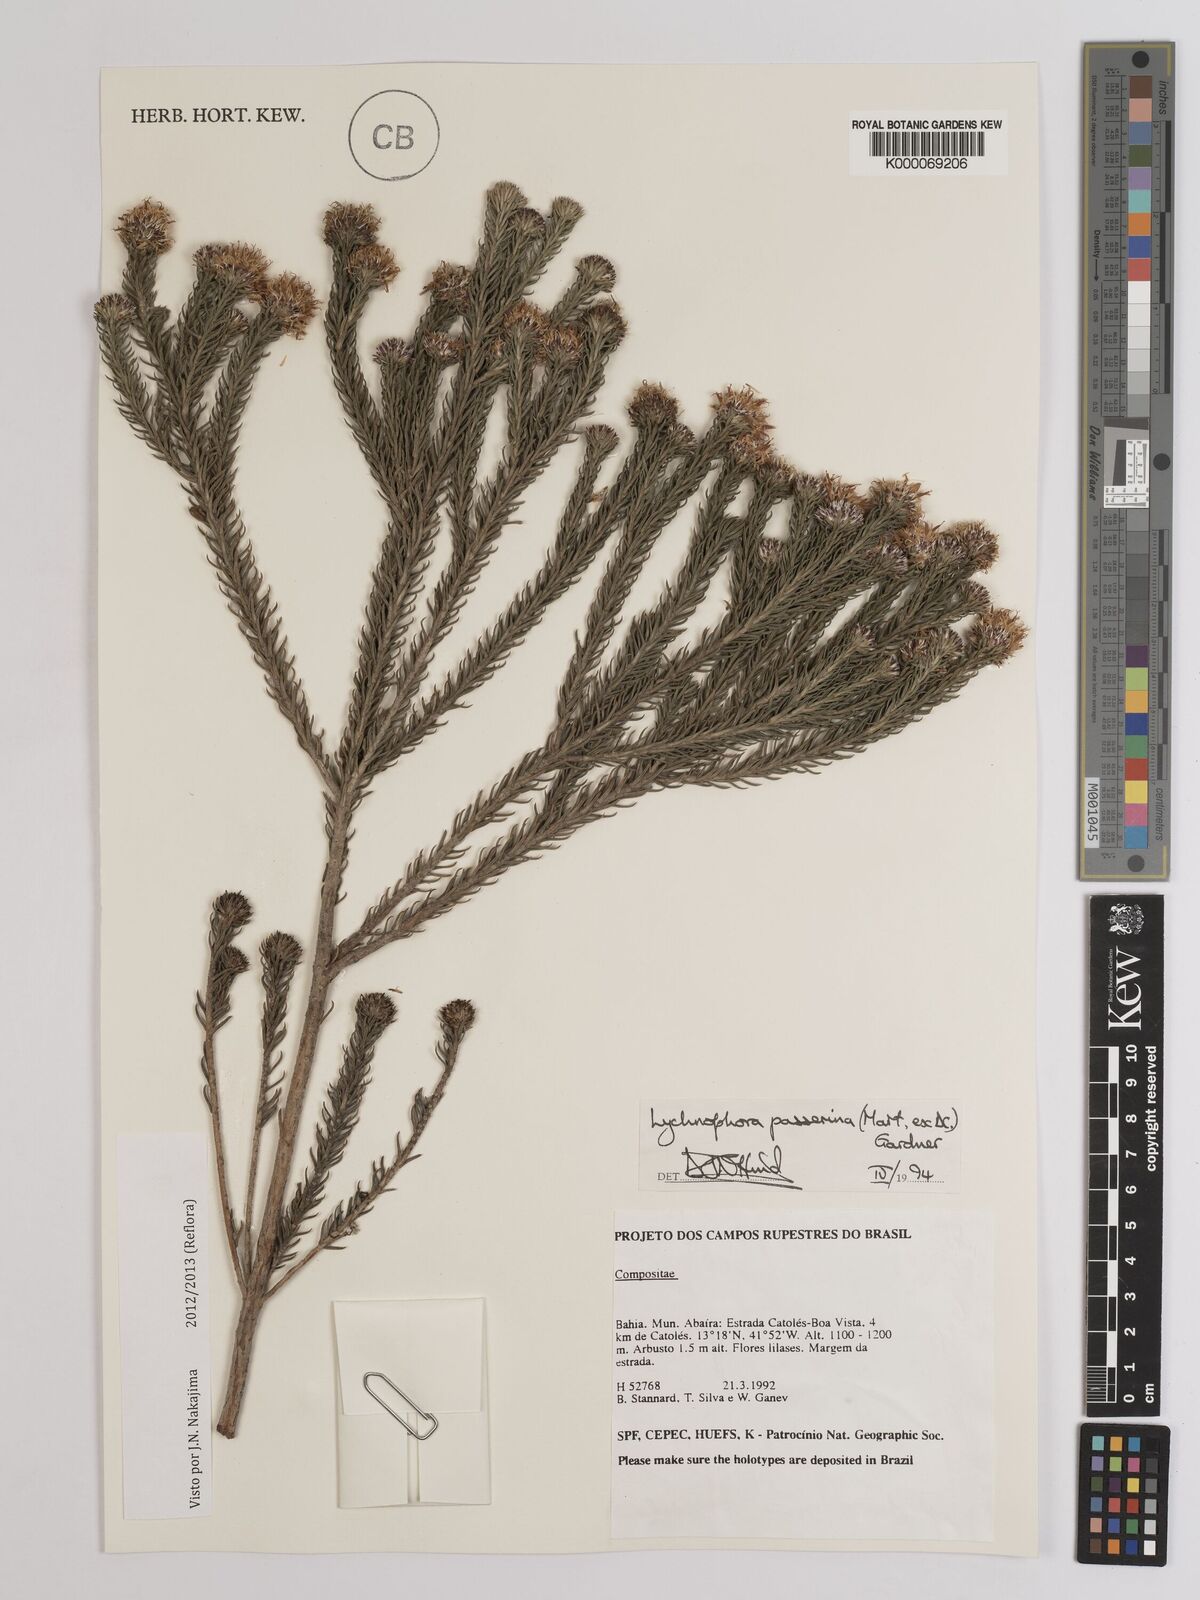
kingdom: Plantae
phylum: Tracheophyta
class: Magnoliopsida
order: Asterales
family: Asteraceae
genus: Lychnophora
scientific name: Lychnophora passerina
